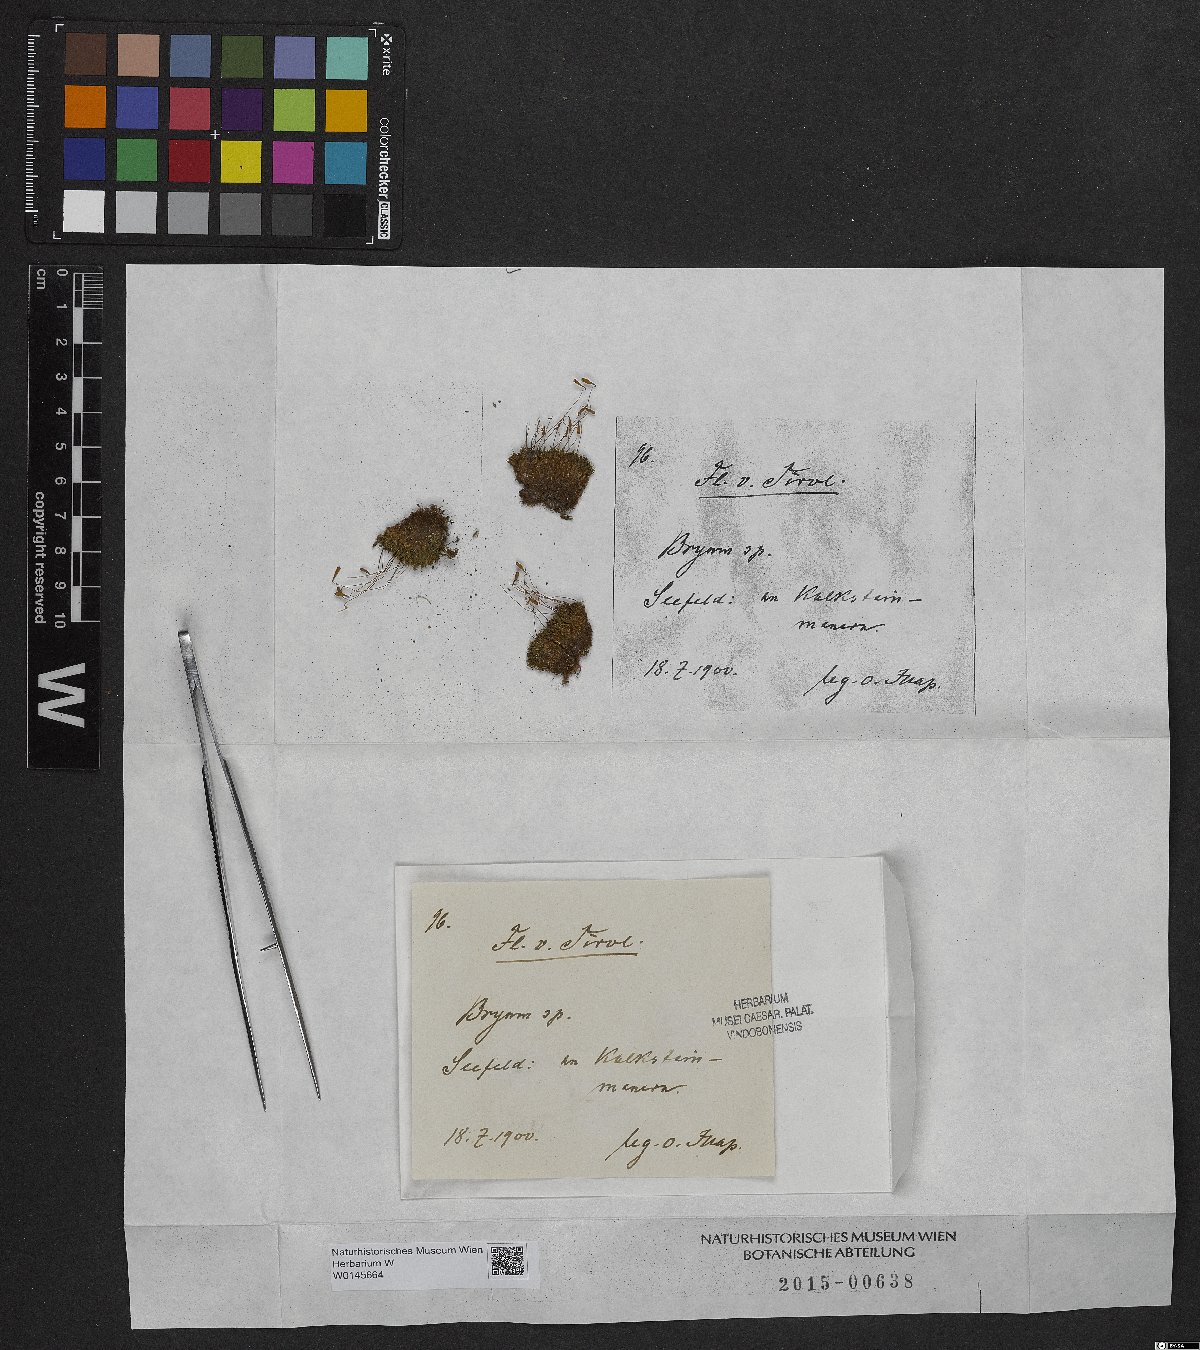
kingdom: Plantae
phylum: Bryophyta
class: Bryopsida
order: Bryales
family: Bryaceae
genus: Bryum
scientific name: Bryum
